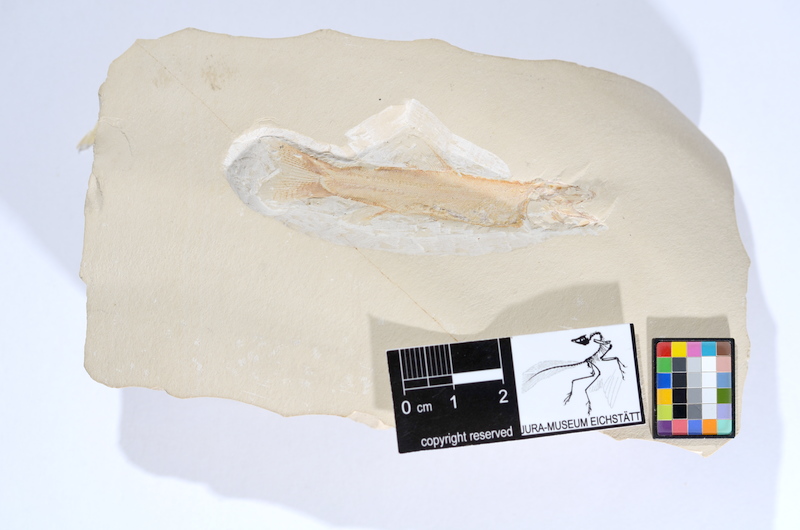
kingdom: Animalia
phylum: Chordata
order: Amiiformes
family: Liodesmidae
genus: Liodesmus
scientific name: Liodesmus gracilis
